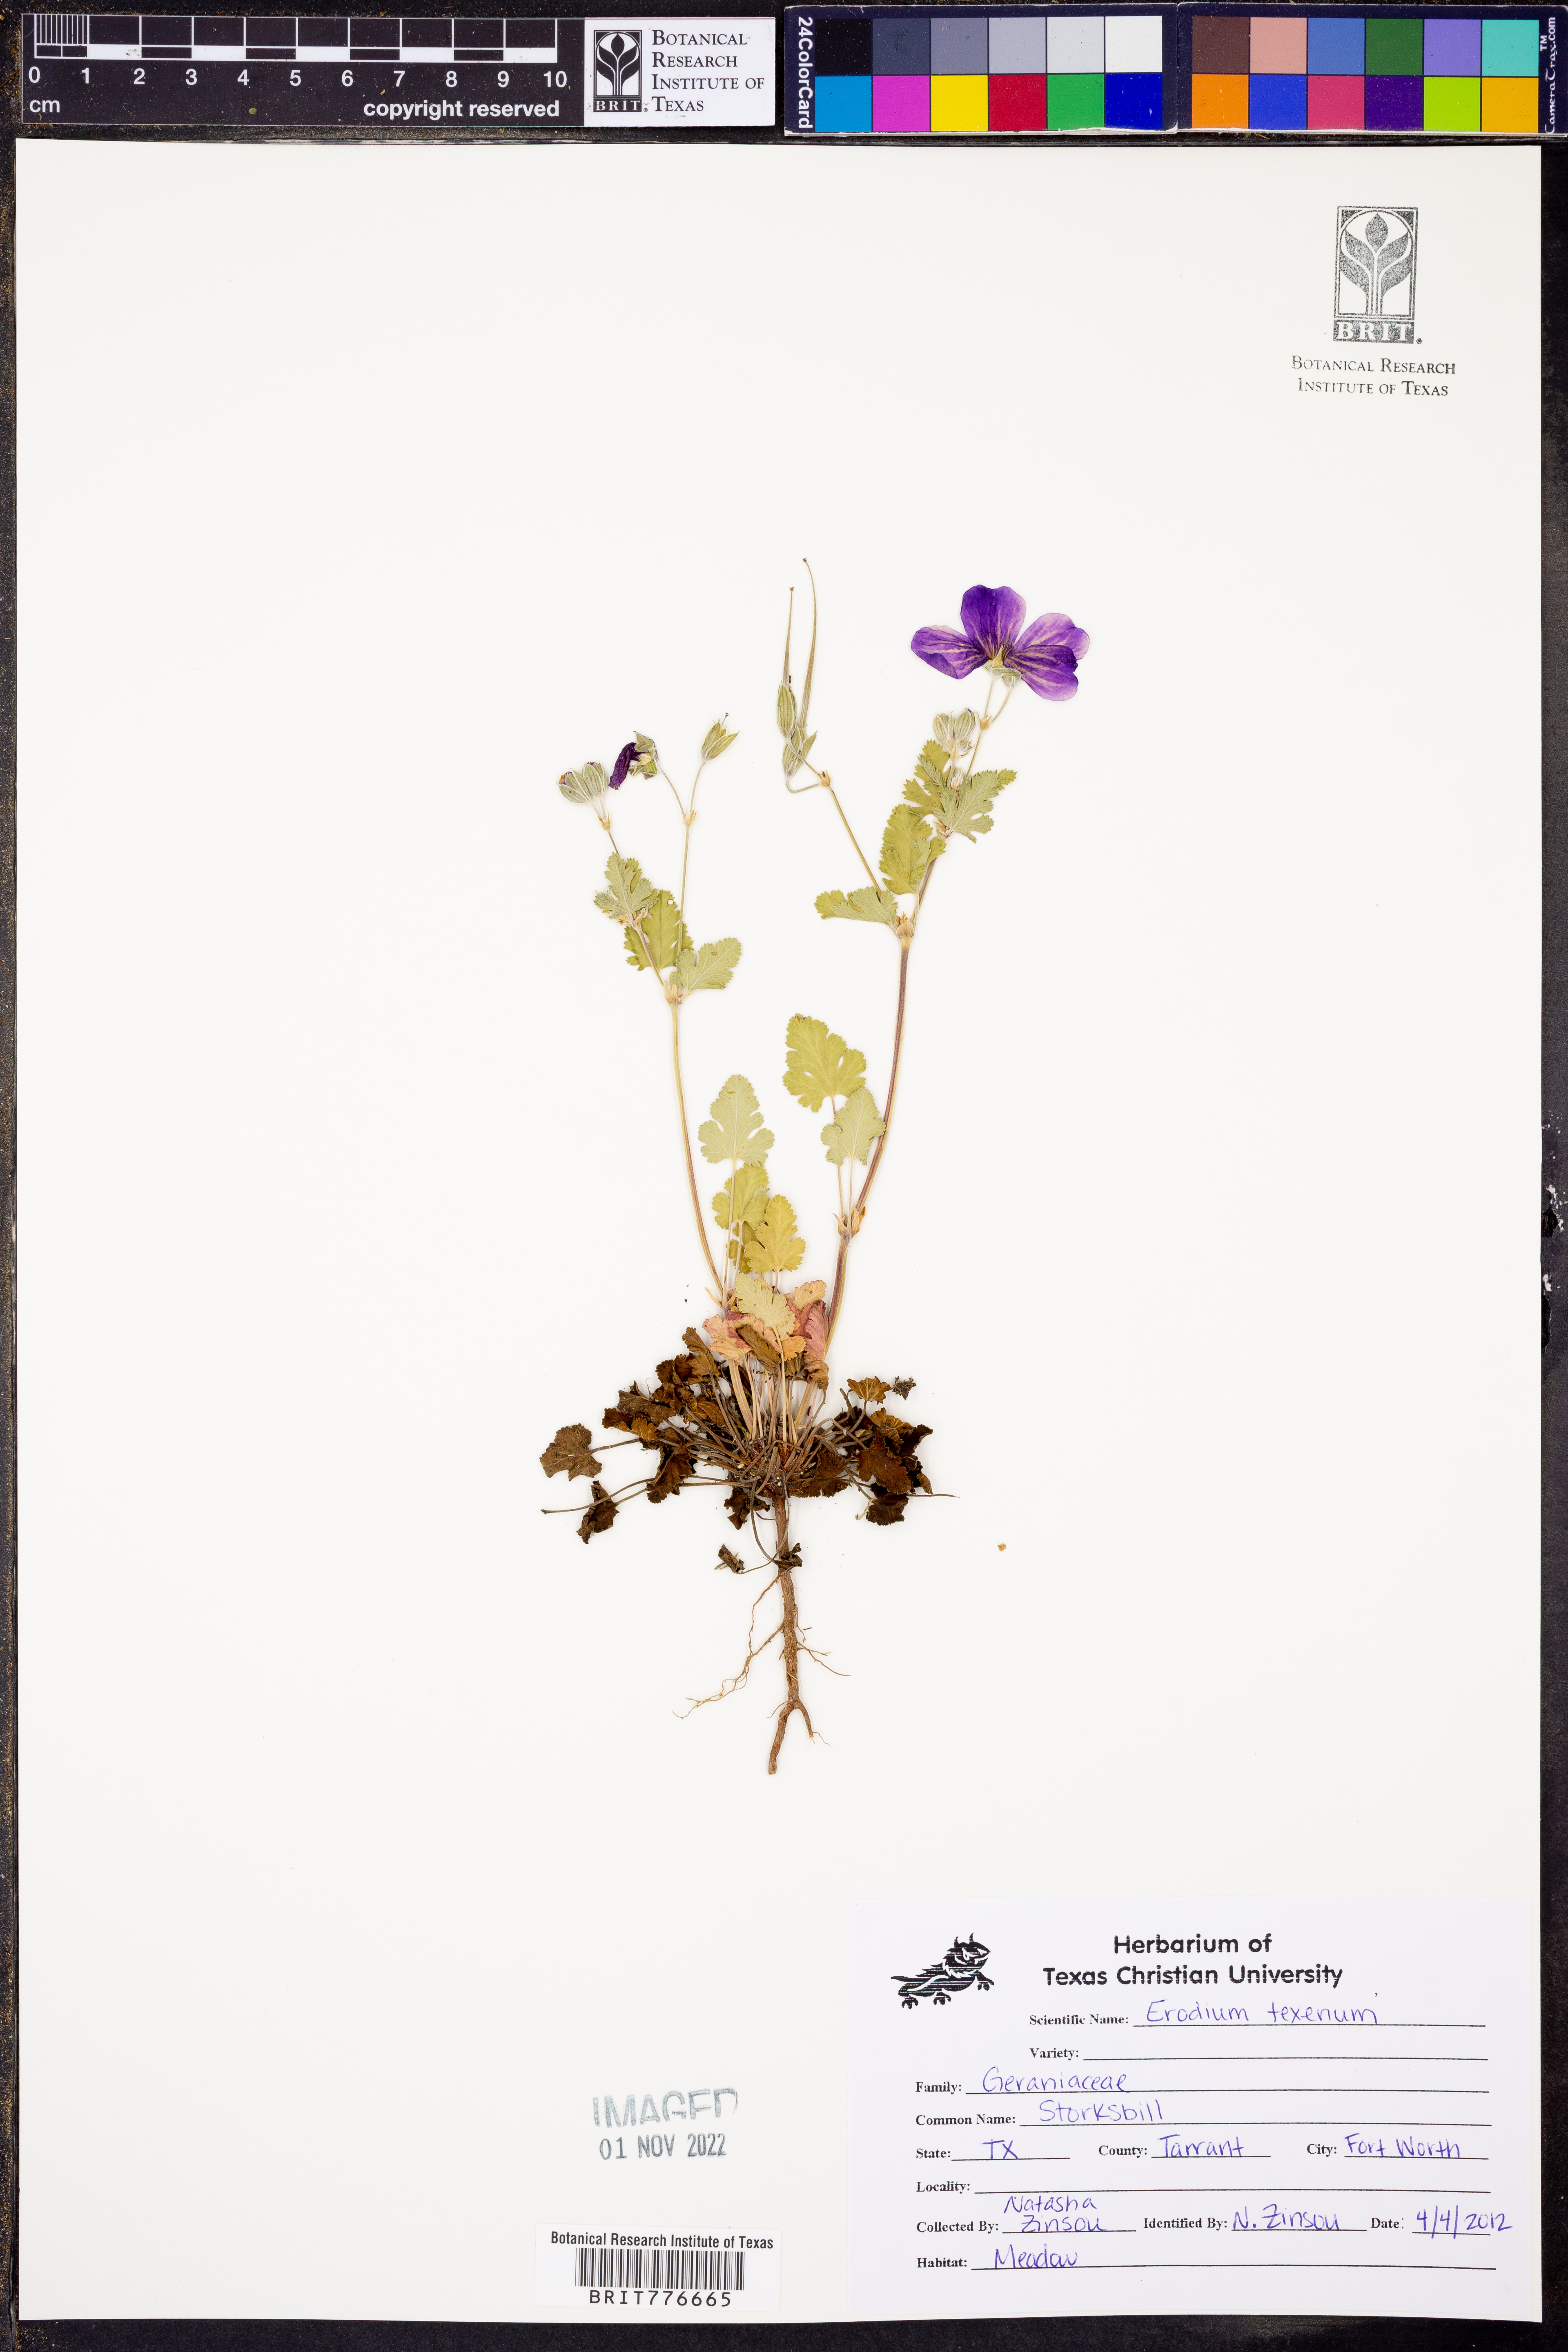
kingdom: Plantae
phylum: Tracheophyta
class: Magnoliopsida
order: Geraniales
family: Geraniaceae
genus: Erodium
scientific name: Erodium texanum
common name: Texas stork's-bill
